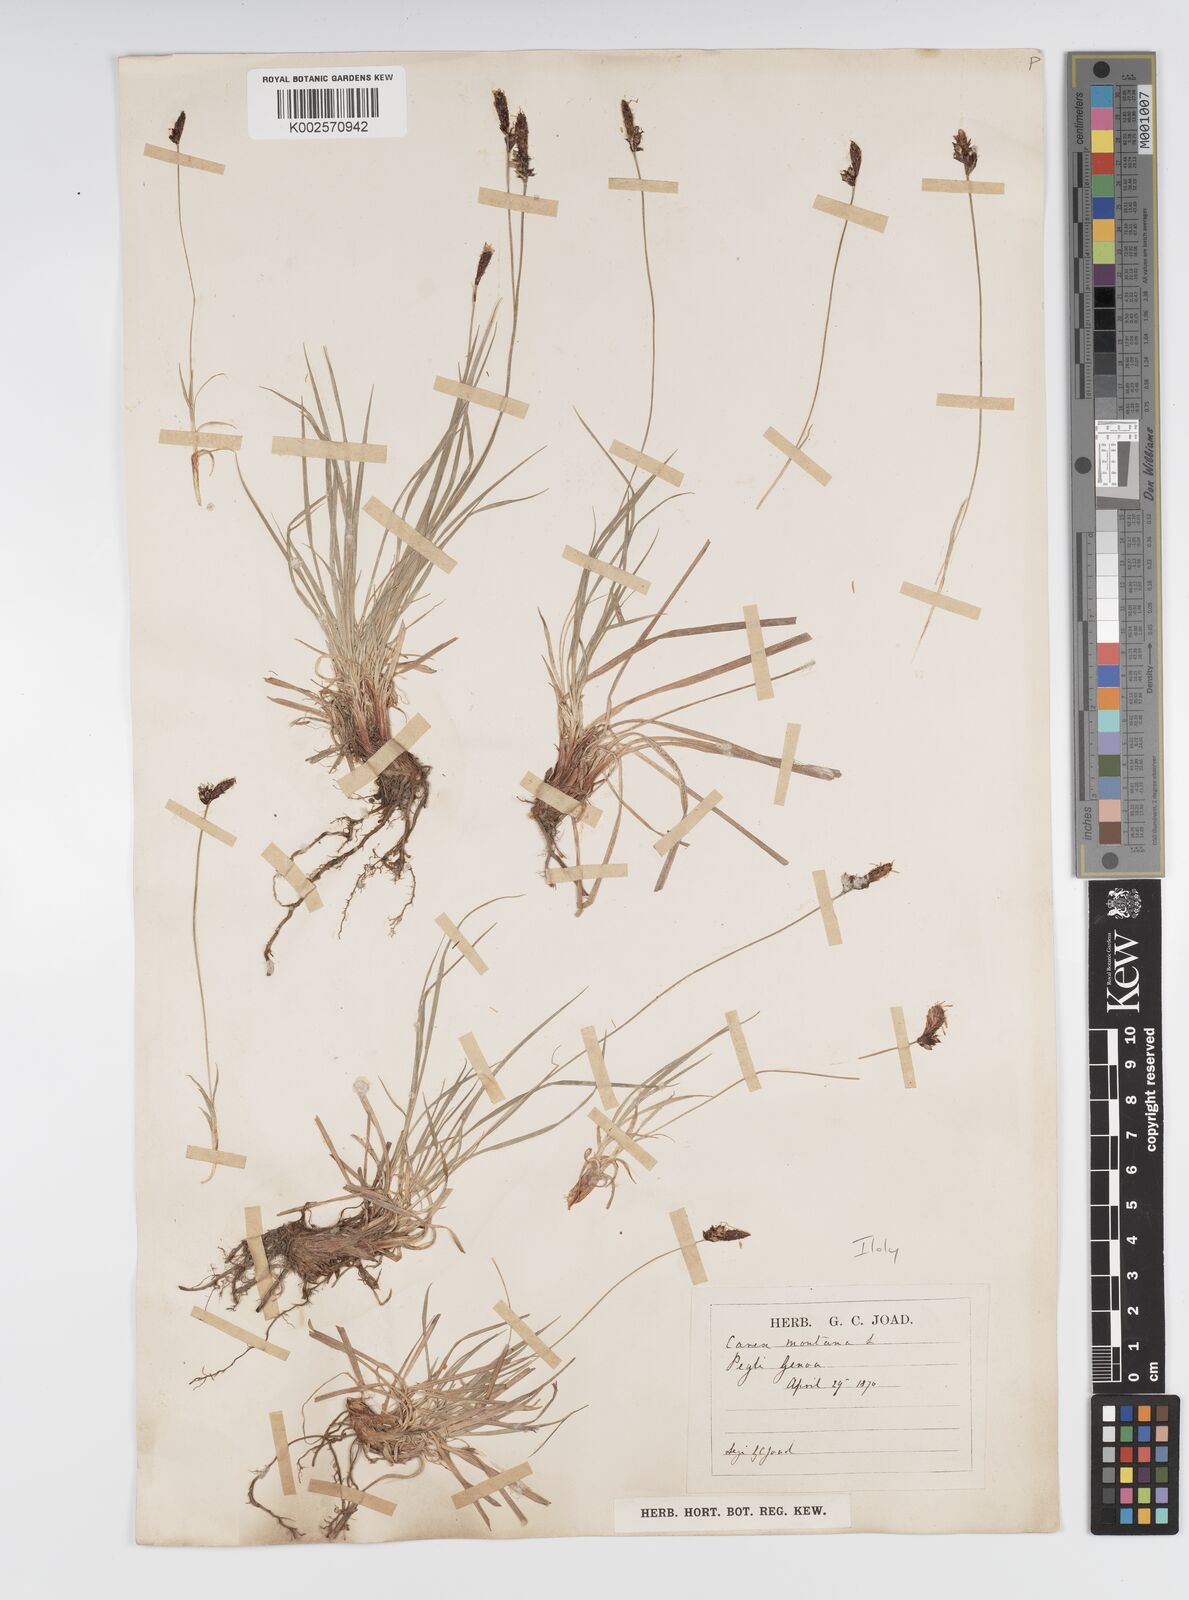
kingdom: Plantae
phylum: Tracheophyta
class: Liliopsida
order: Poales
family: Cyperaceae
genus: Carex
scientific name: Carex montana
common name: Soft-leaved sedge
